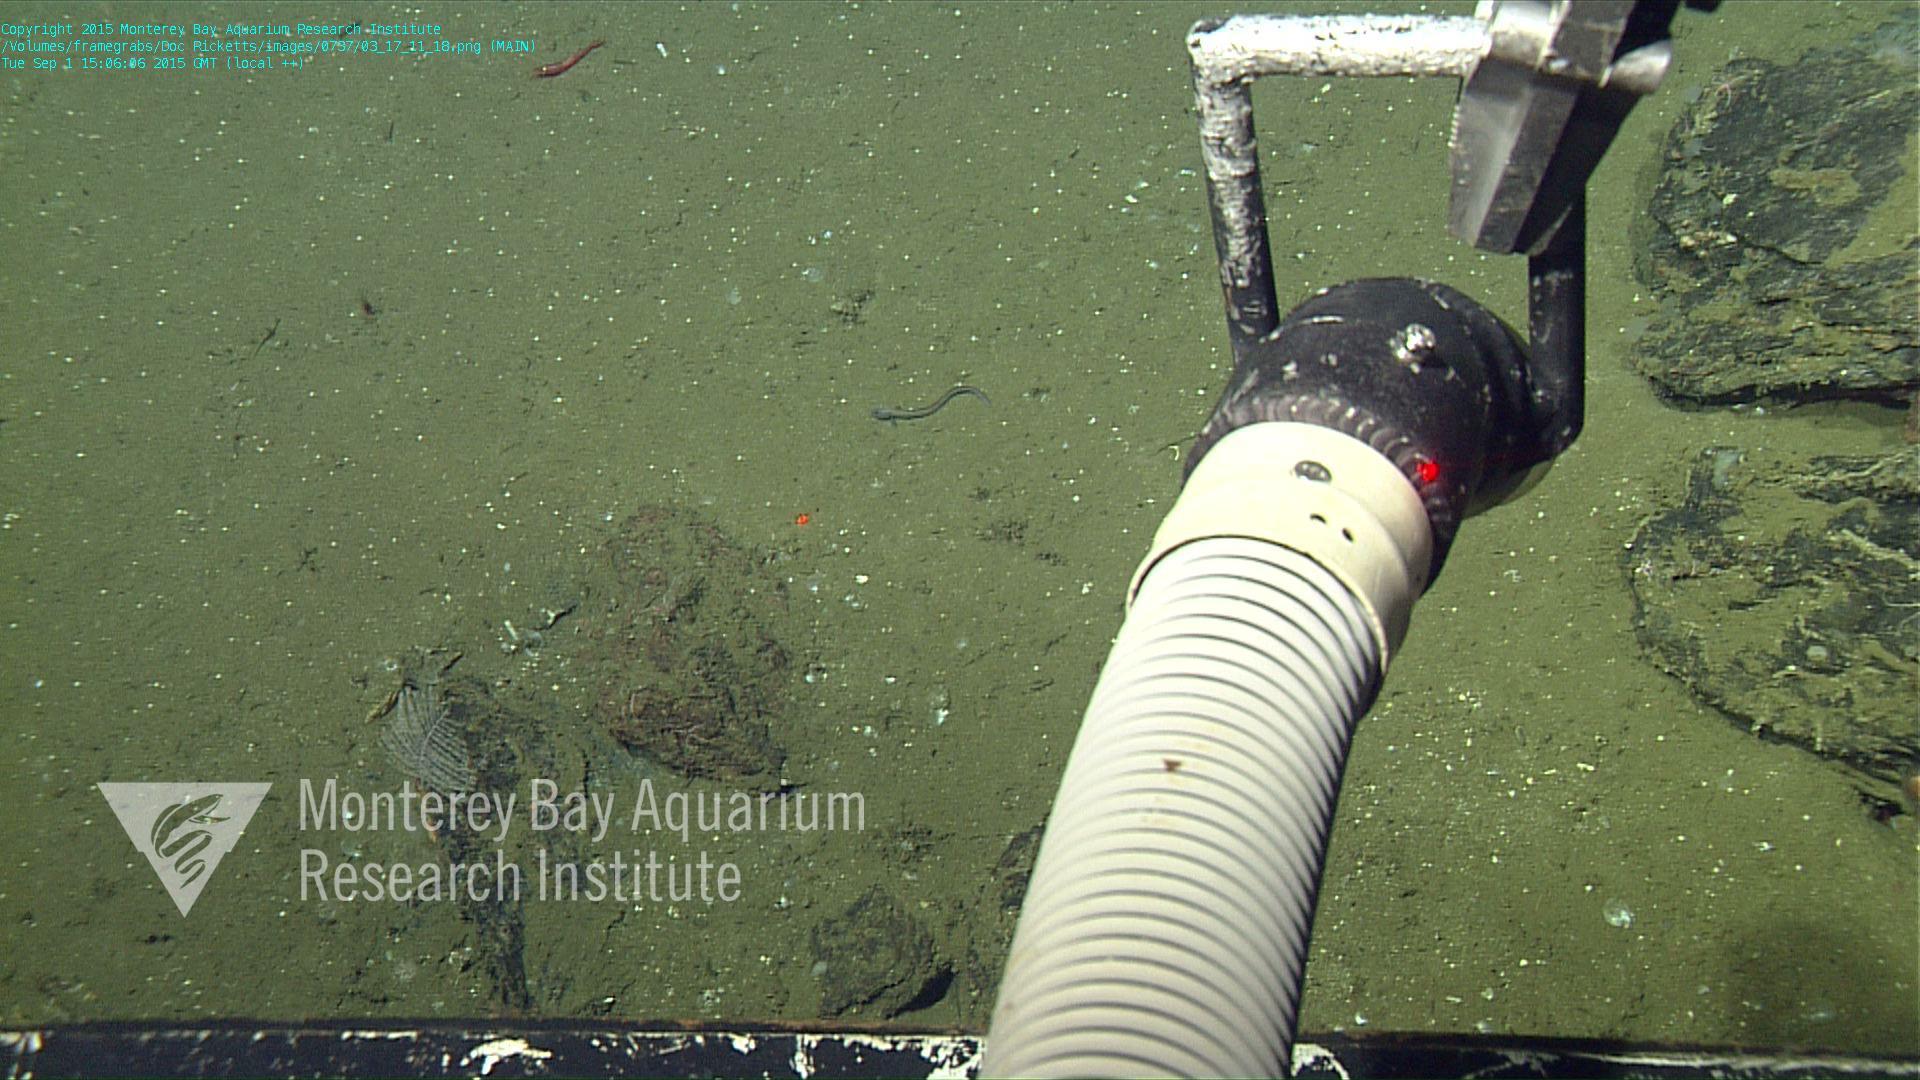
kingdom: Animalia
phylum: Cnidaria
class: Anthozoa
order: Antipatharia
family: Schizopathidae
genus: Bathypathes
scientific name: Bathypathes
